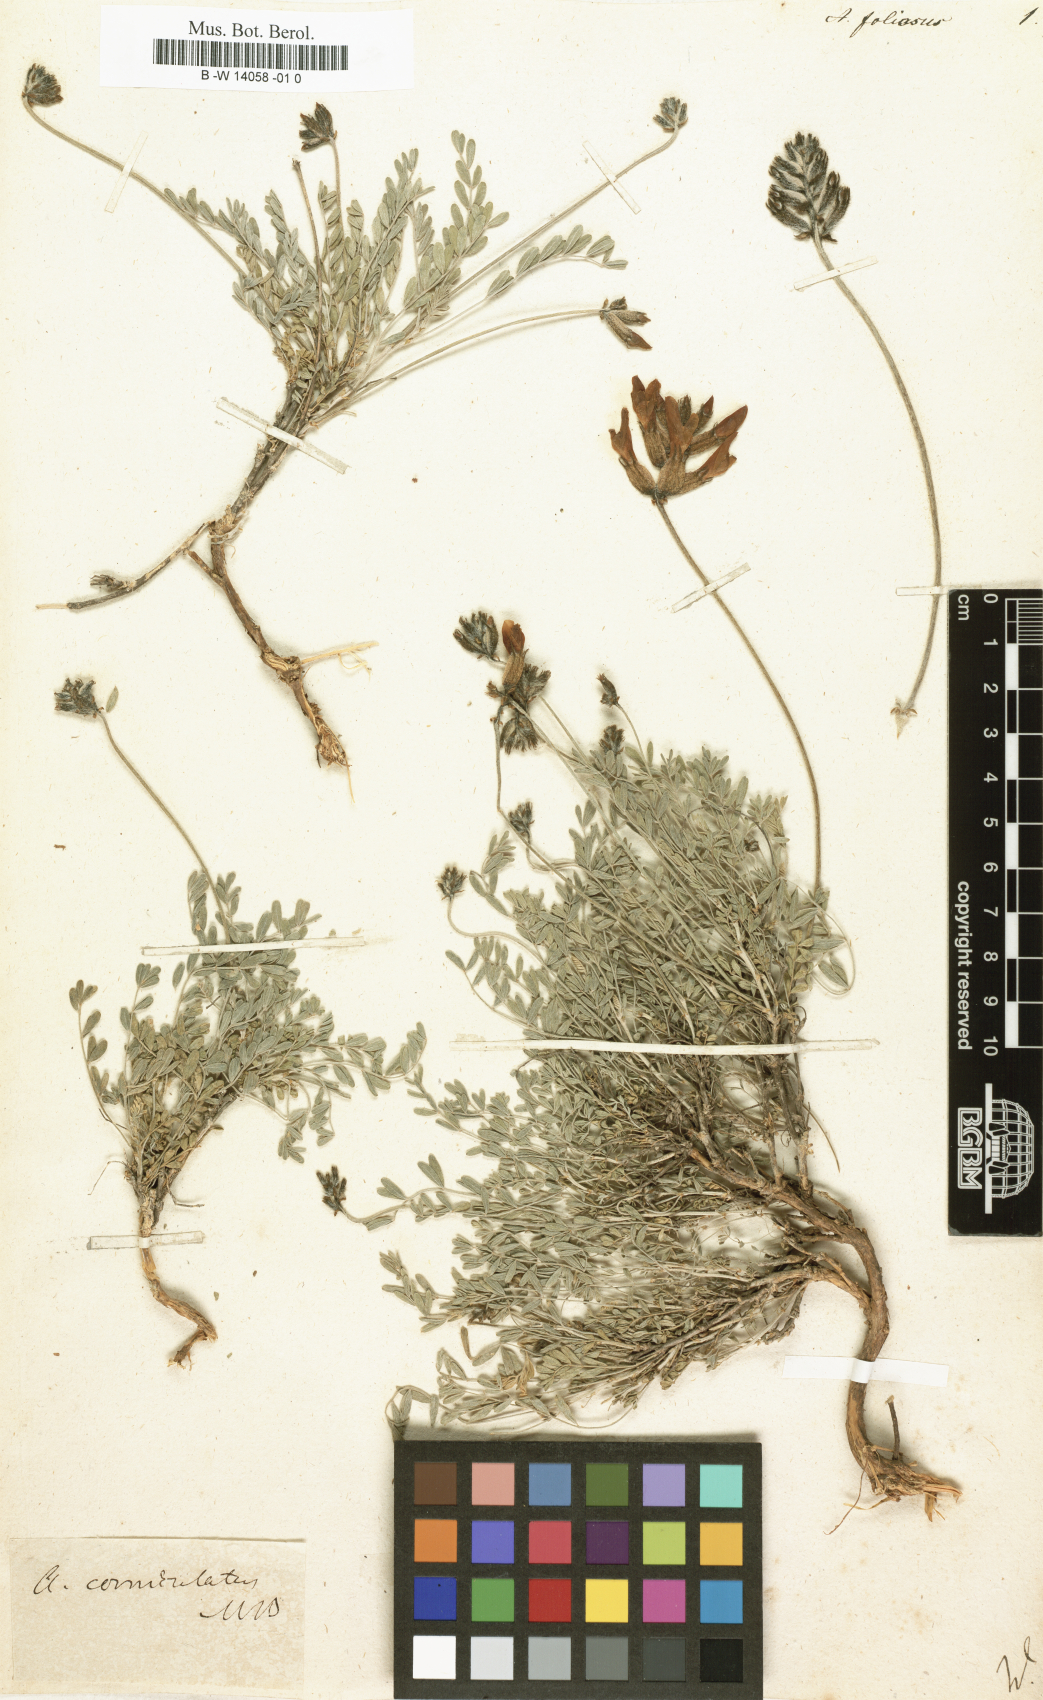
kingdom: Plantae
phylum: Tracheophyta
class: Magnoliopsida
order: Fabales
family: Fabaceae
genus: Astragalus
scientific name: Astragalus foliosus
